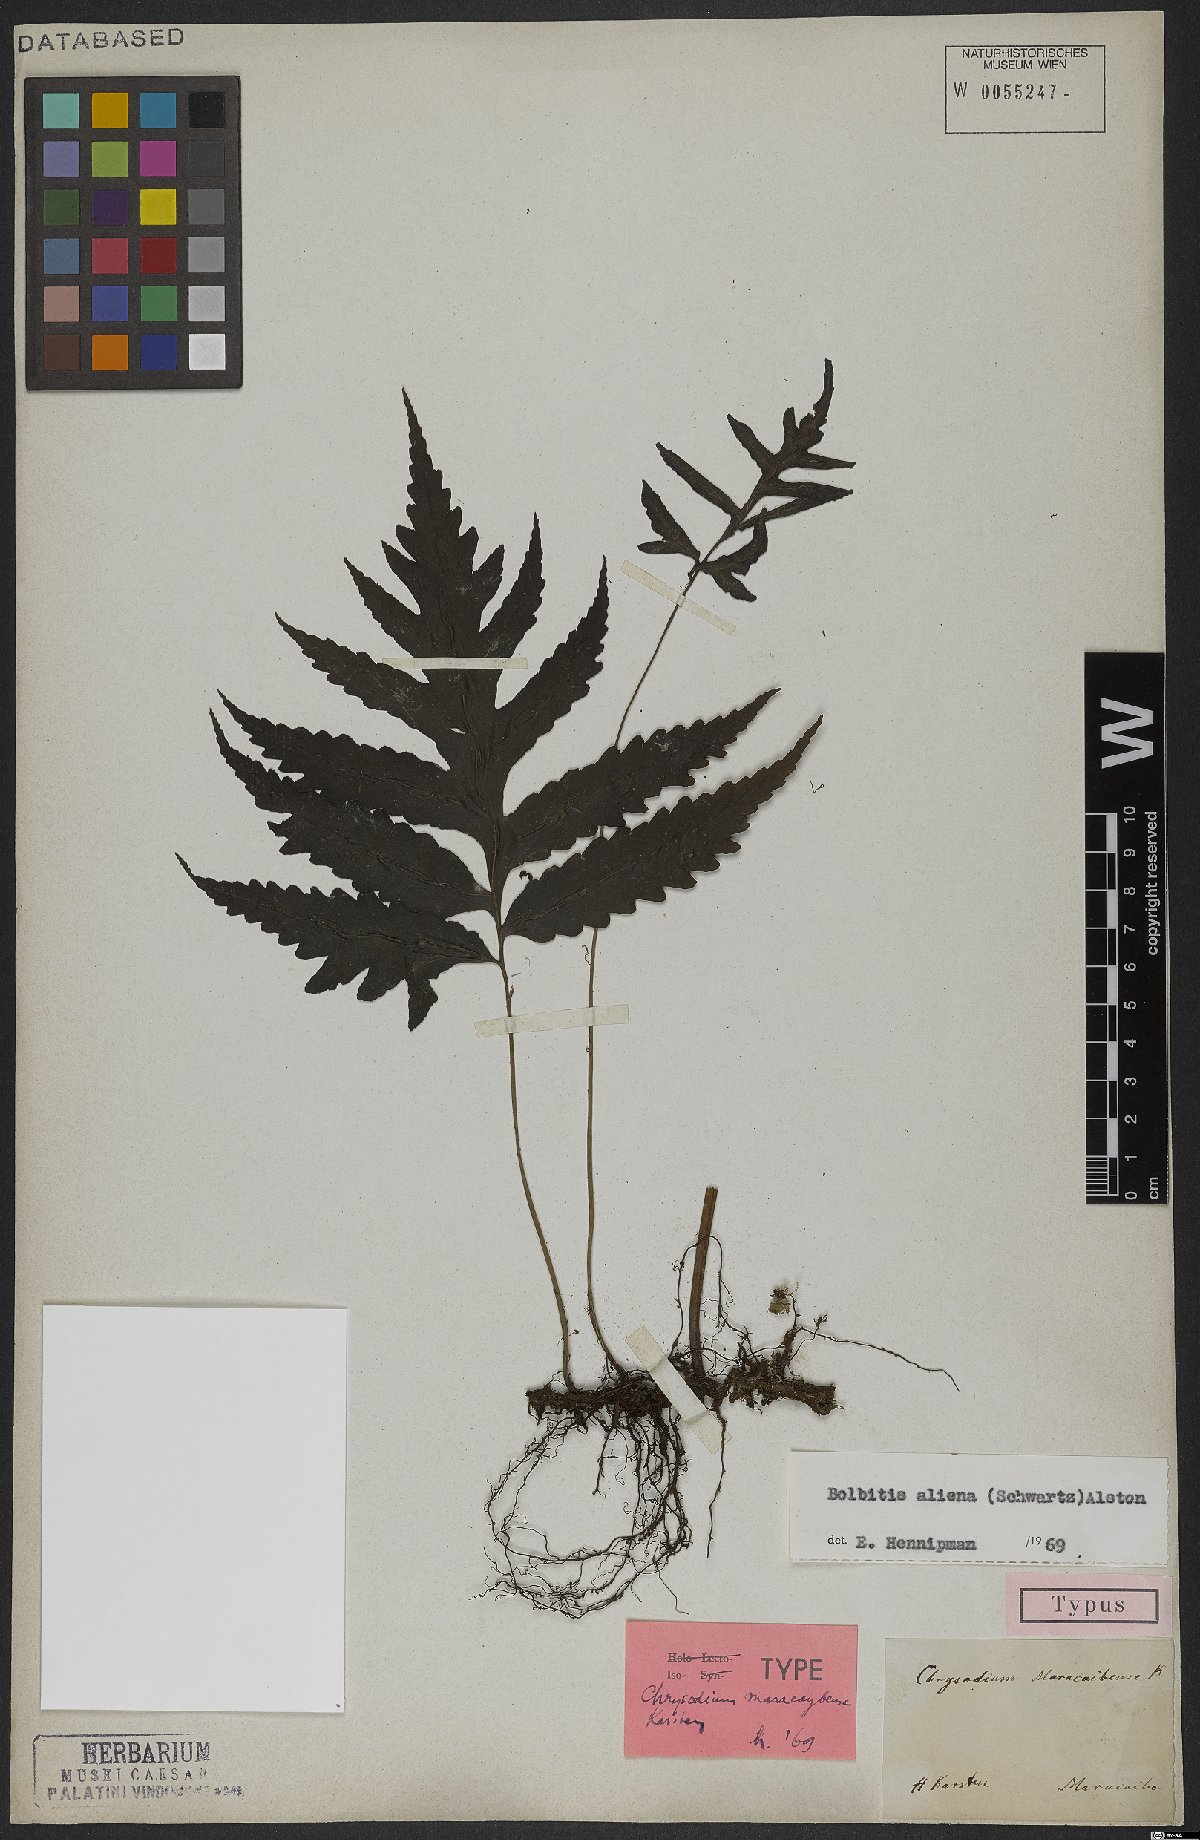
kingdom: Plantae
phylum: Tracheophyta
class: Polypodiopsida
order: Polypodiales
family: Dryopteridaceae
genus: Bolbitis
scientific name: Bolbitis aliena
